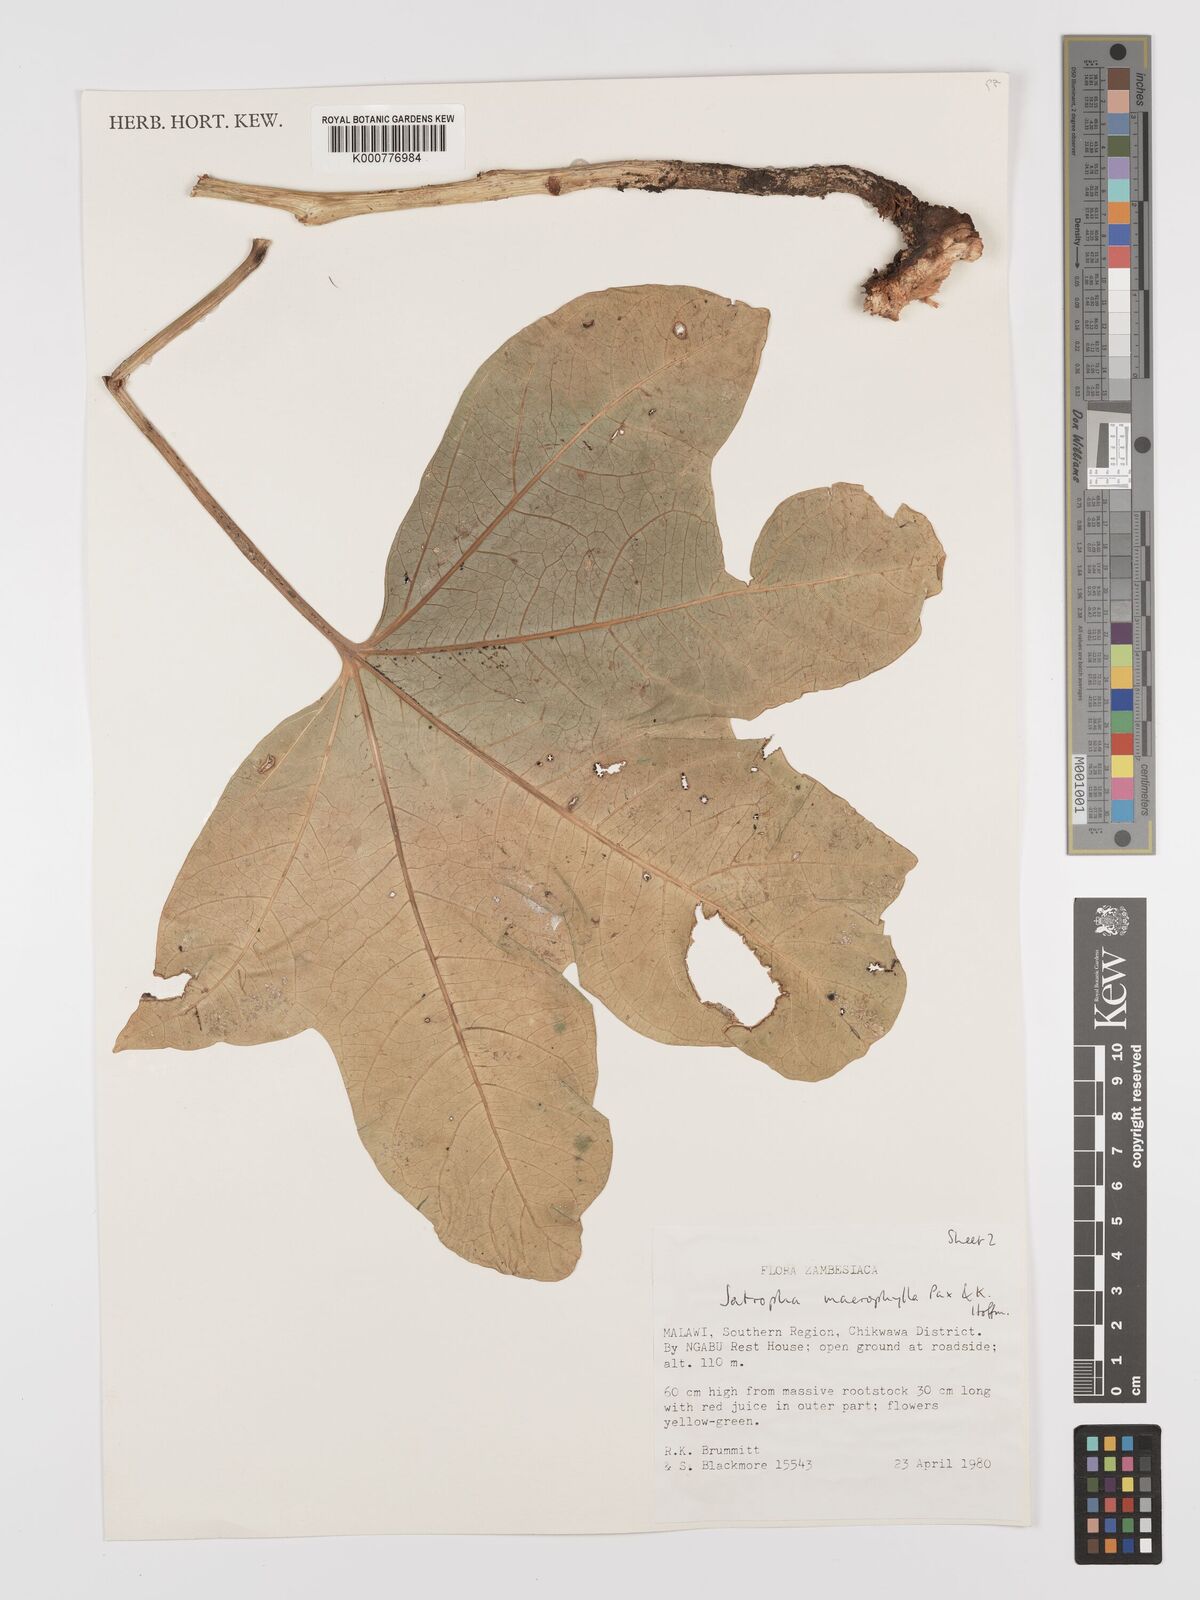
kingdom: Plantae
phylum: Tracheophyta
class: Magnoliopsida
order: Malpighiales
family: Euphorbiaceae
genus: Jatropha
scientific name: Jatropha macrophylla
